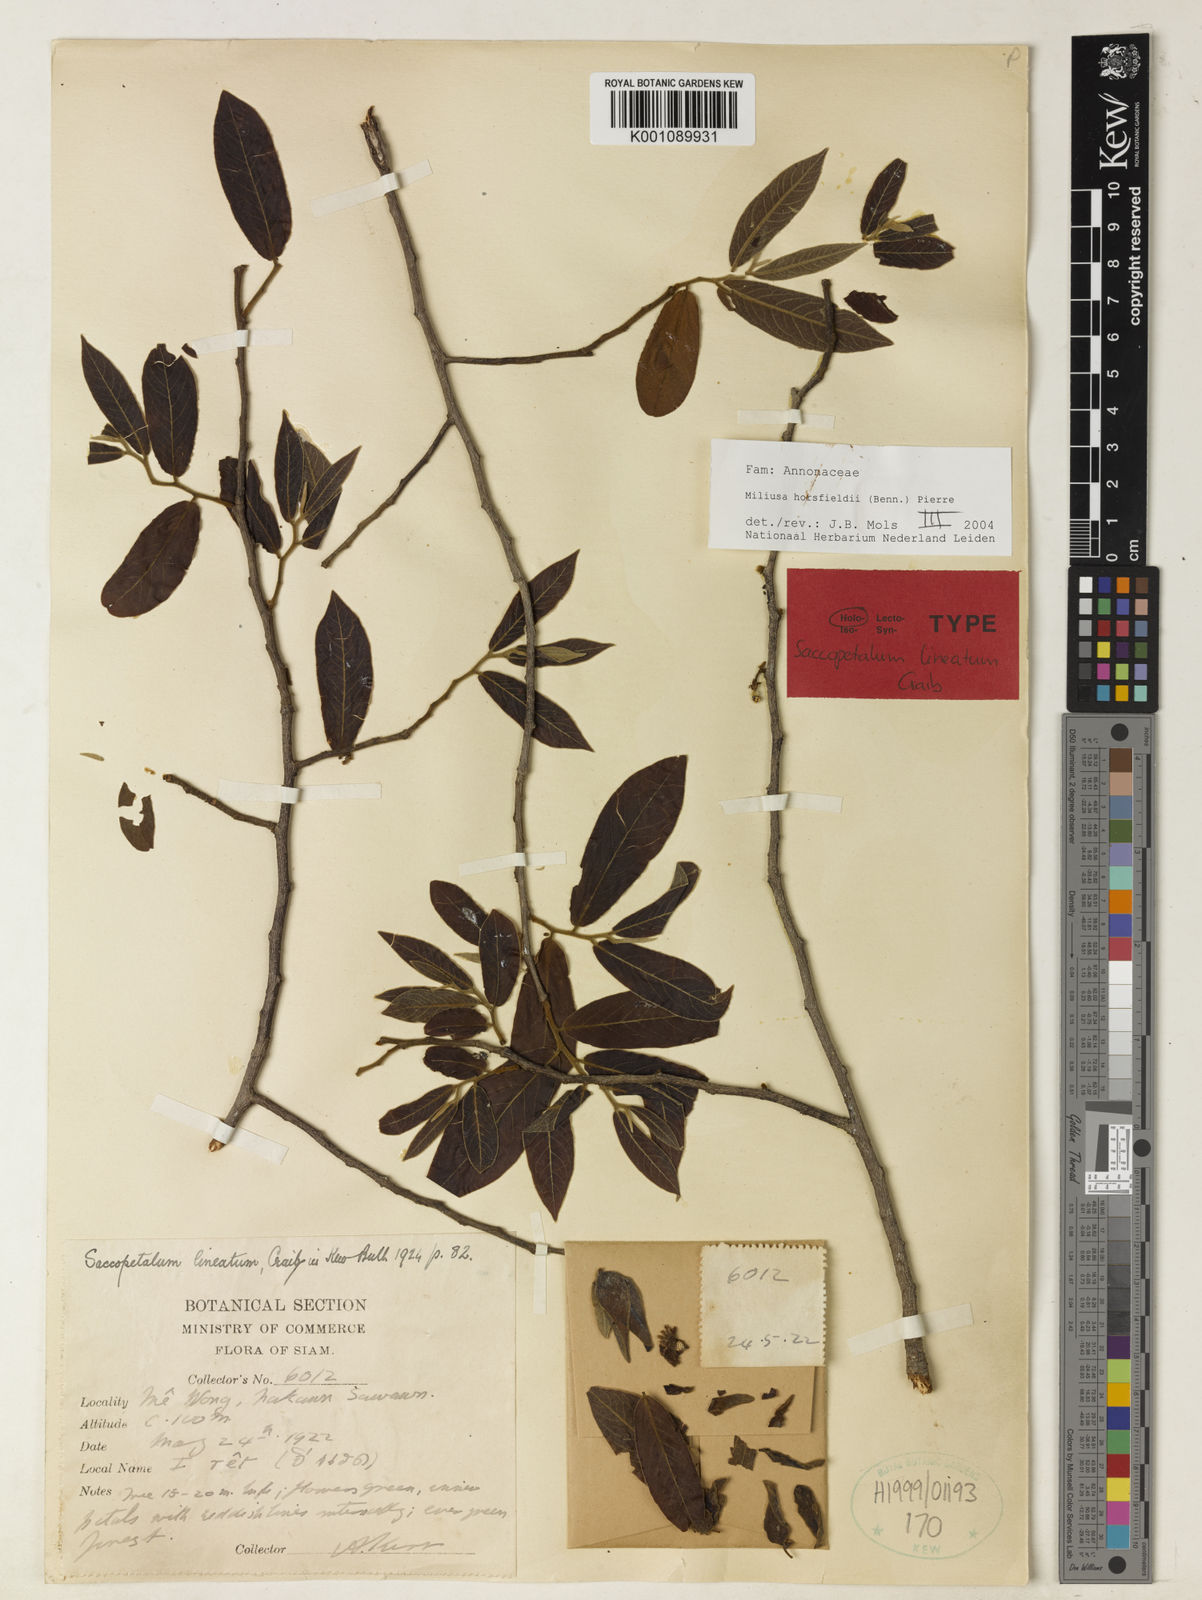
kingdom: Plantae
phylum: Tracheophyta
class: Magnoliopsida
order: Magnoliales
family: Annonaceae
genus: Miliusa
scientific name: Miliusa horsfieldii
